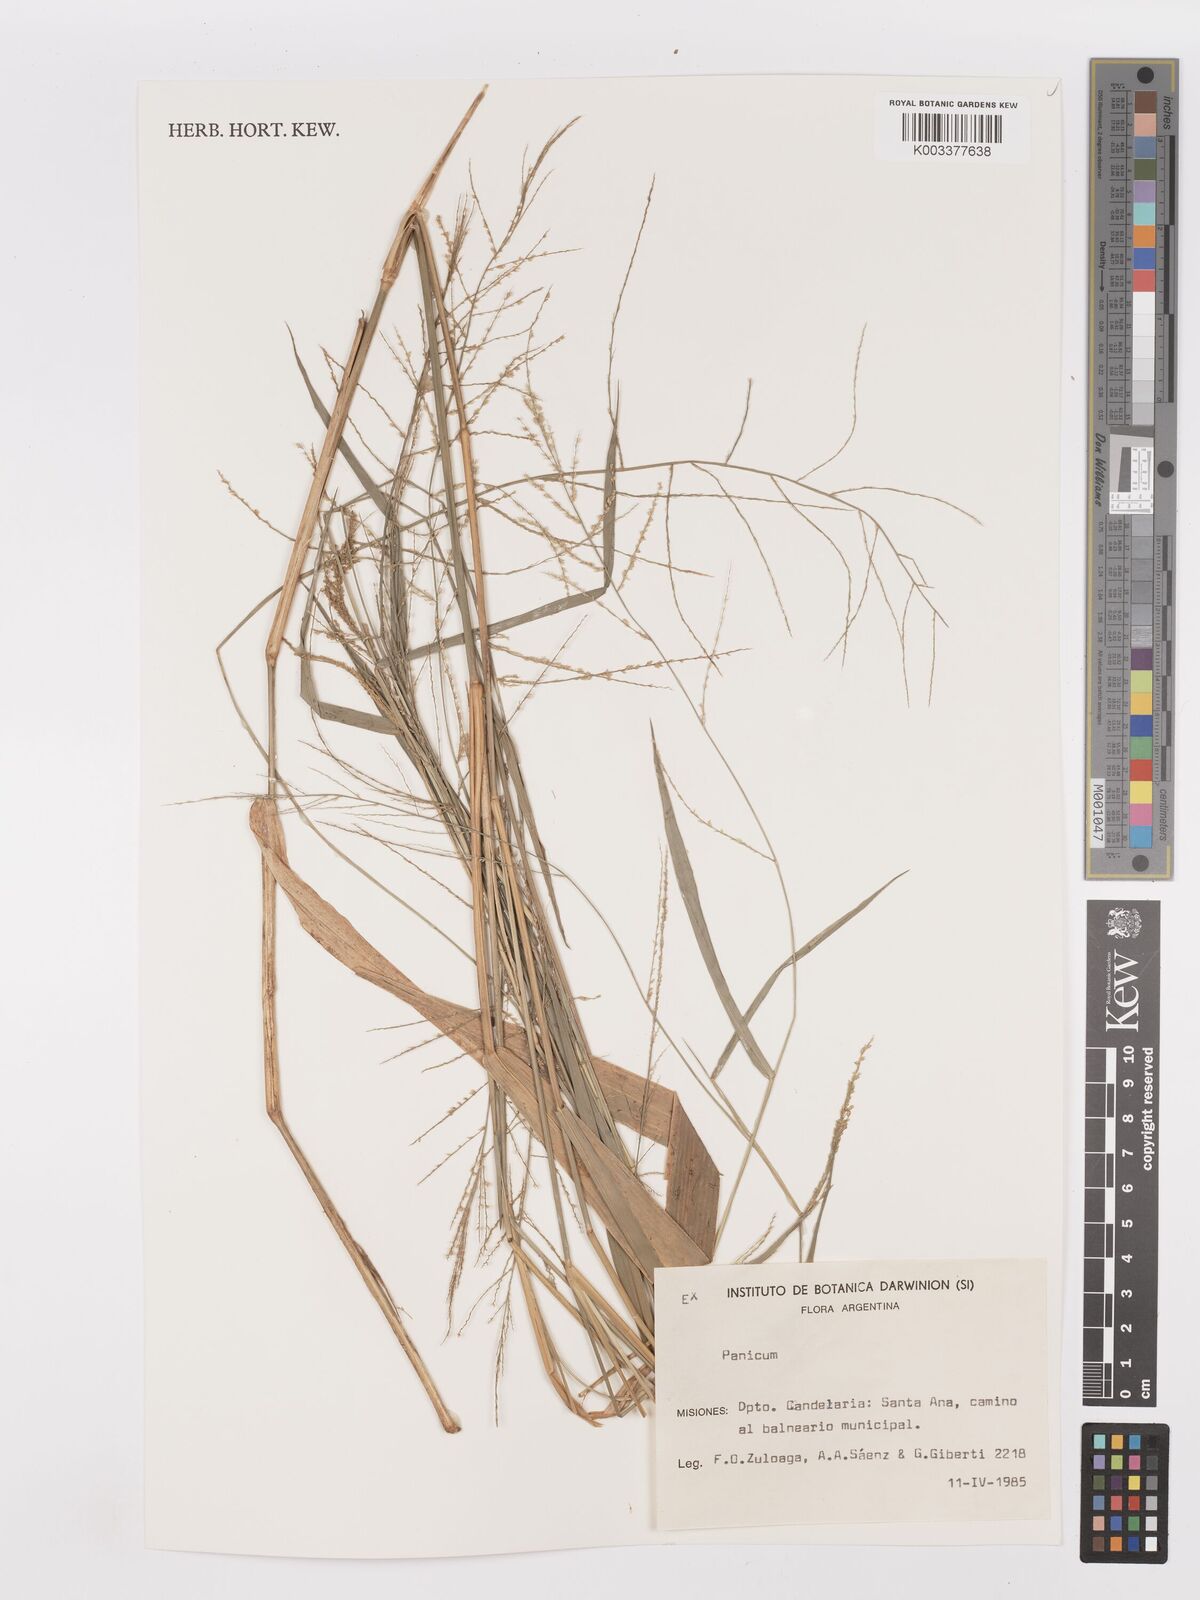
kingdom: Plantae
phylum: Tracheophyta
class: Liliopsida
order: Poales
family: Poaceae
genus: Steinchisma
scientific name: Steinchisma laxum
